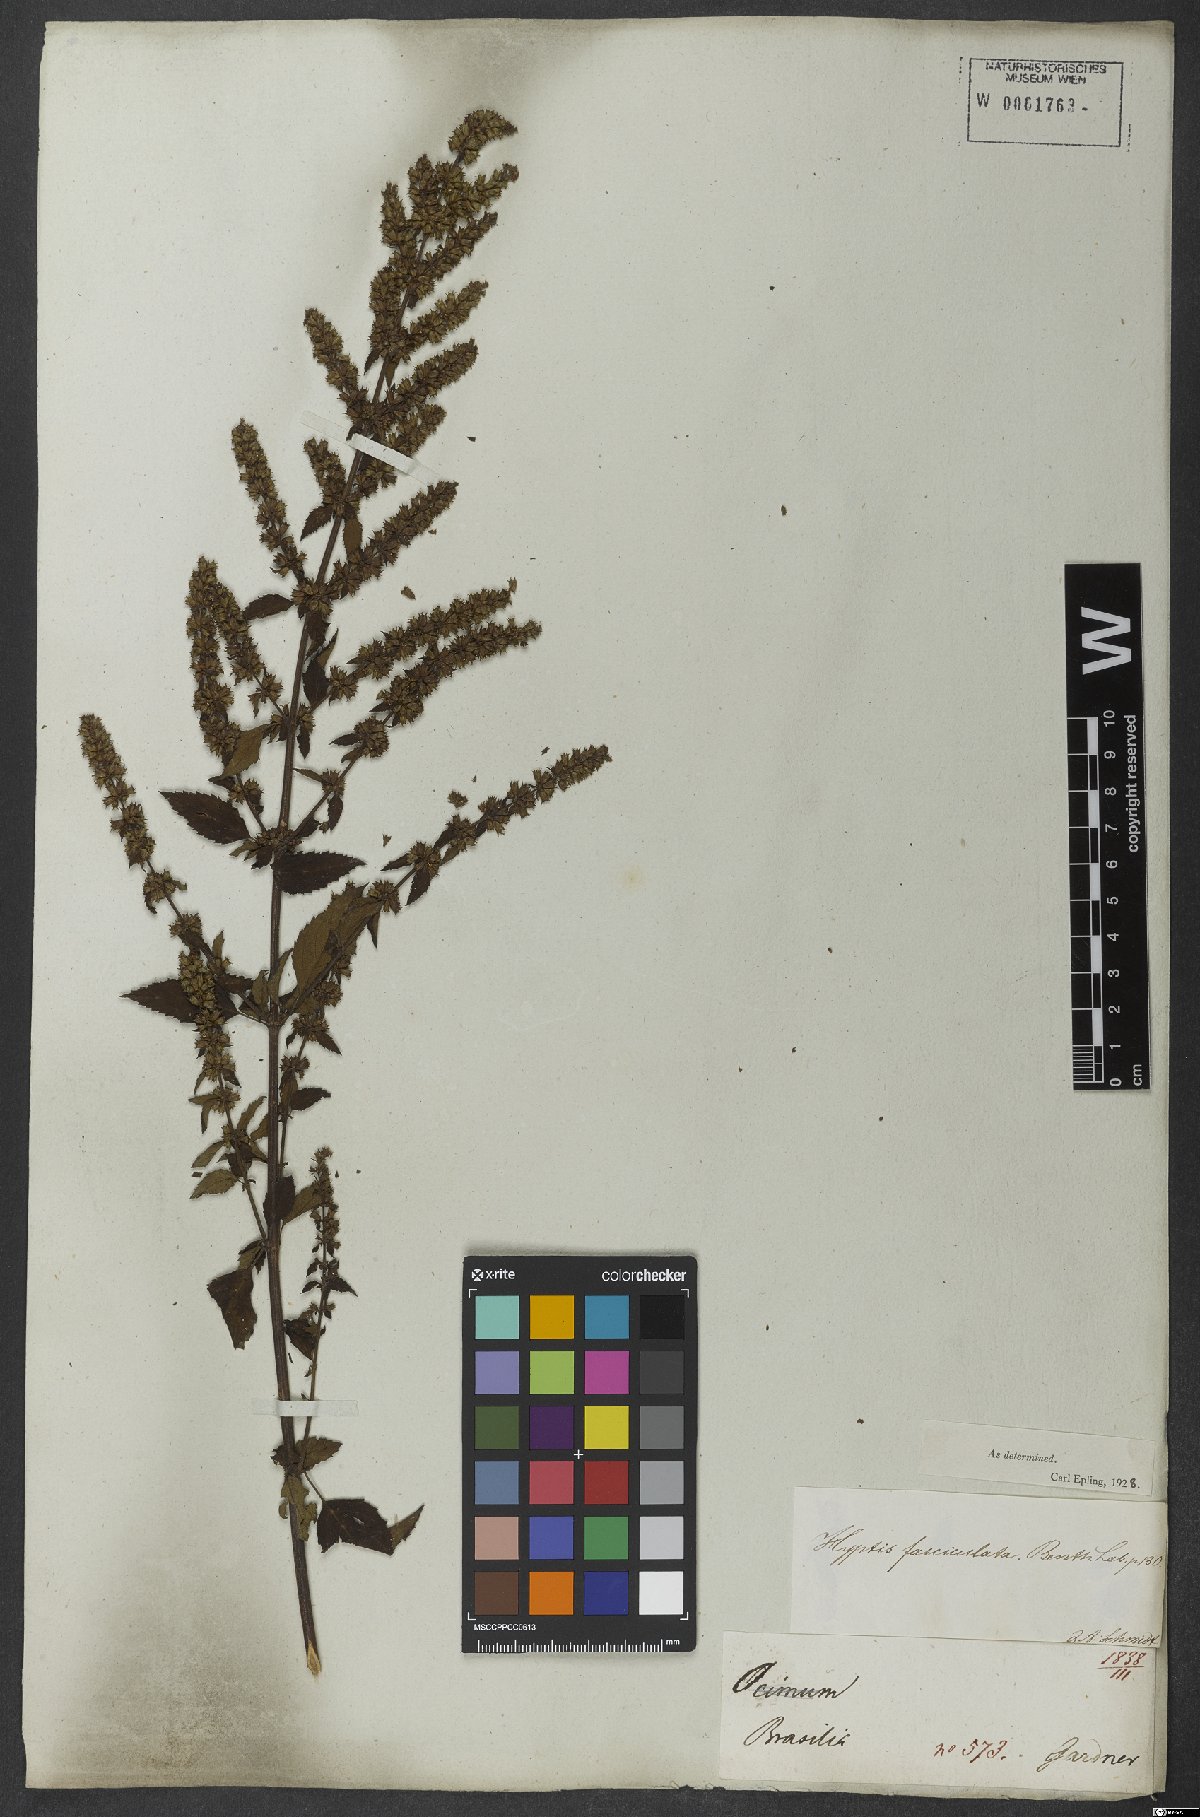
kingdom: Plantae
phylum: Tracheophyta
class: Magnoliopsida
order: Lamiales
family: Lamiaceae
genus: Condea
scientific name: Condea undulata
